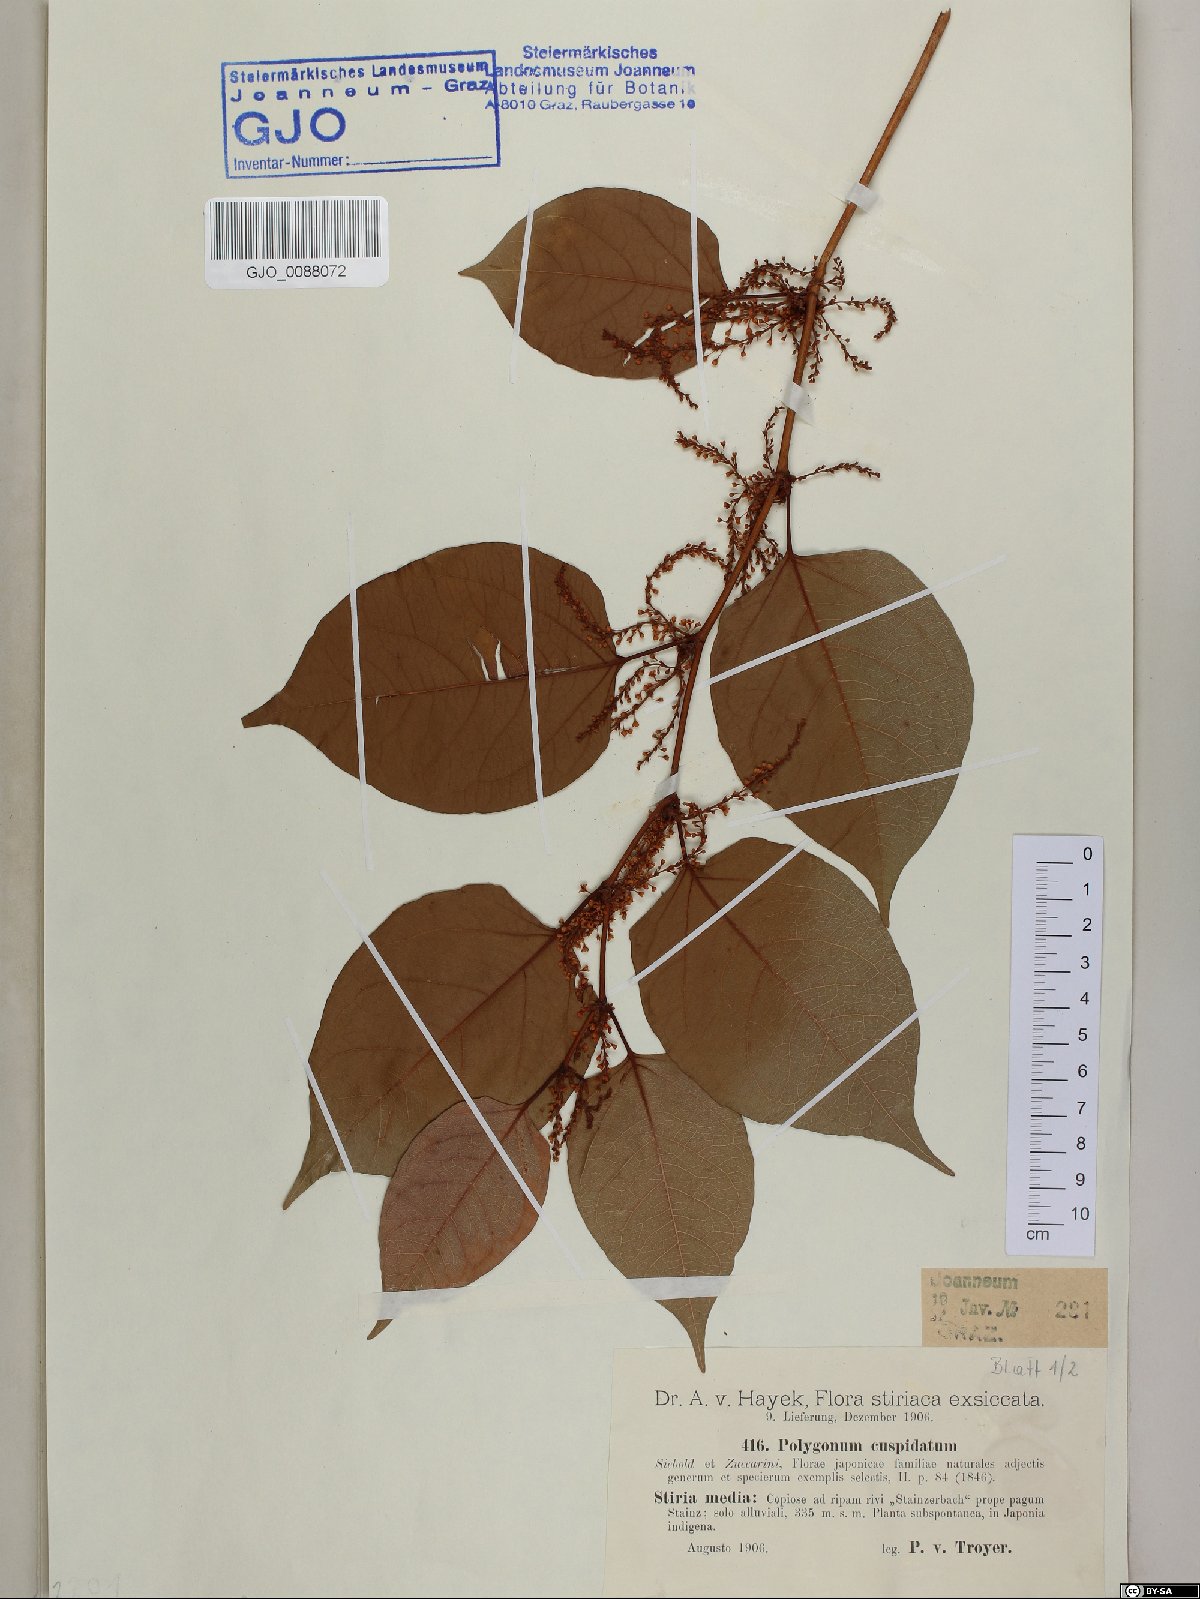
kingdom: Plantae
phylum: Tracheophyta
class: Magnoliopsida
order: Caryophyllales
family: Polygonaceae
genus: Reynoutria
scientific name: Reynoutria japonica
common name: Japanese knotweed
